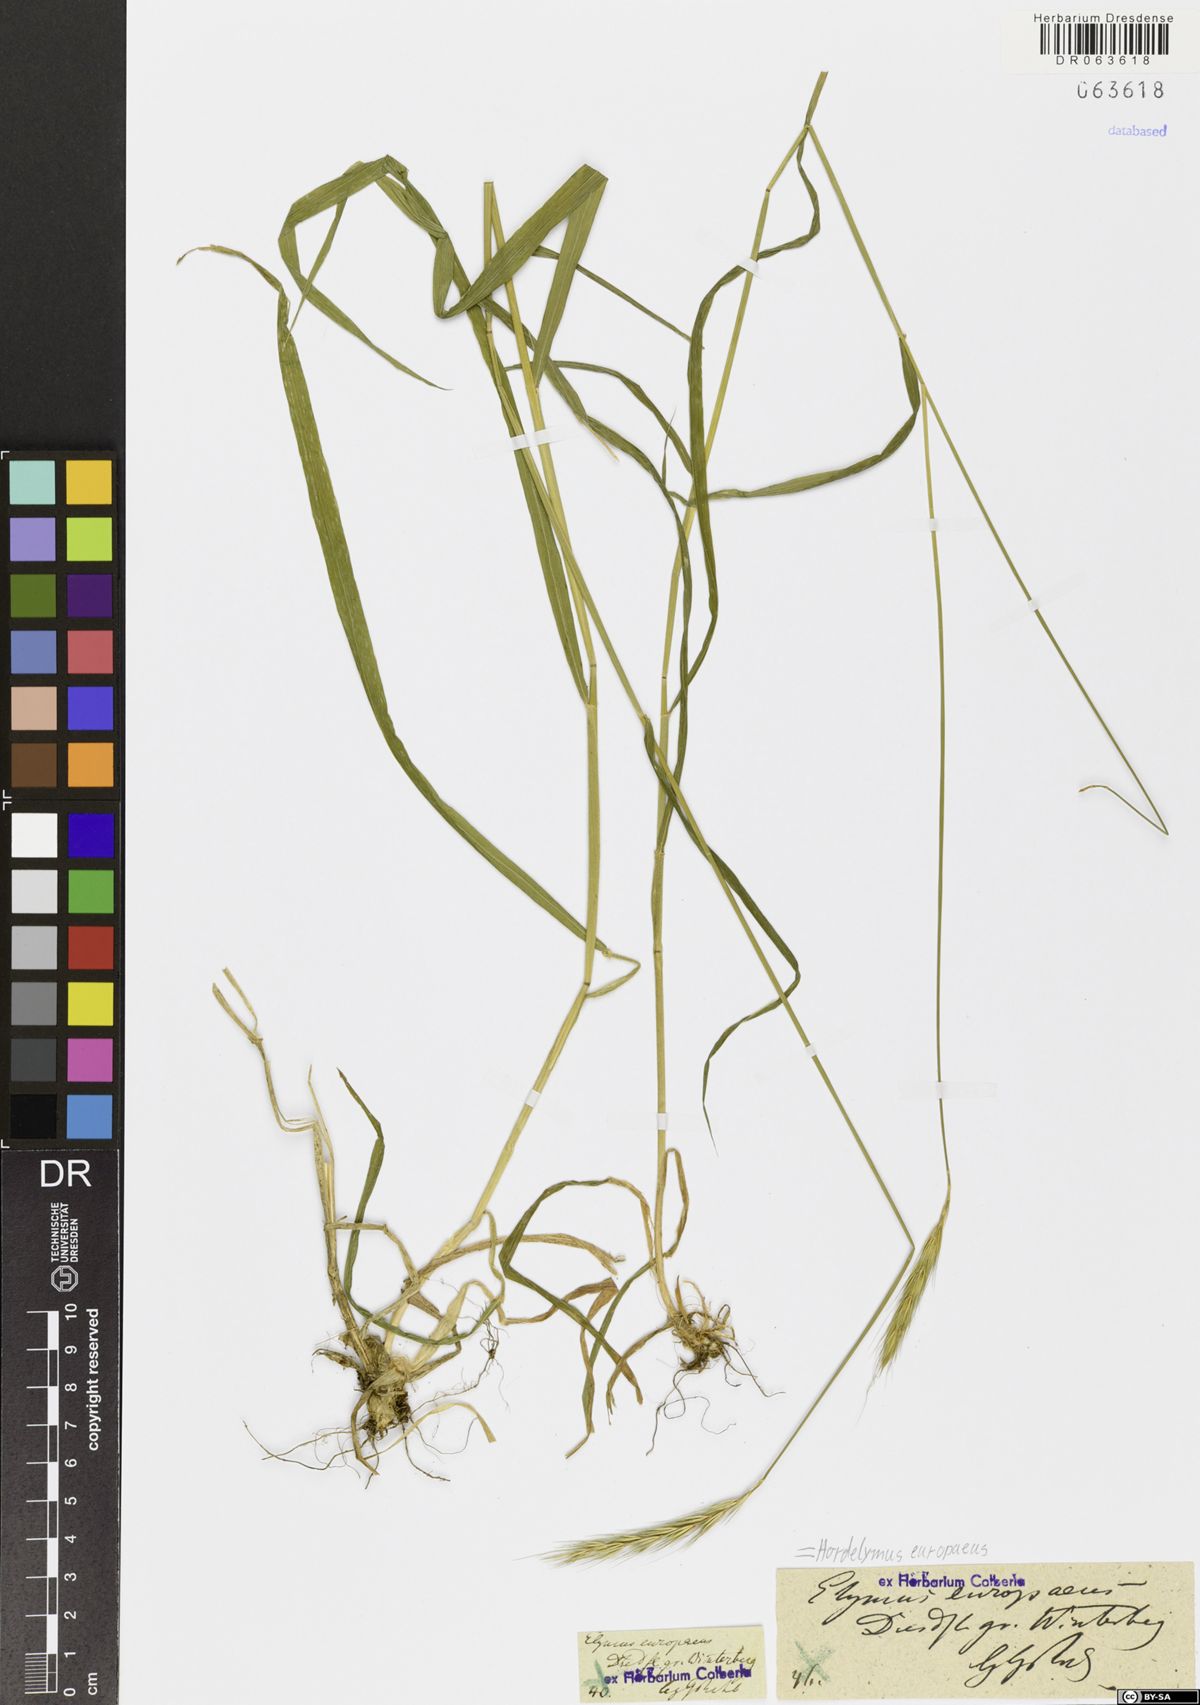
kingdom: Plantae
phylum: Tracheophyta
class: Liliopsida
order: Poales
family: Poaceae
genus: Hordelymus
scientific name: Hordelymus europaeus
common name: Wood-barley
